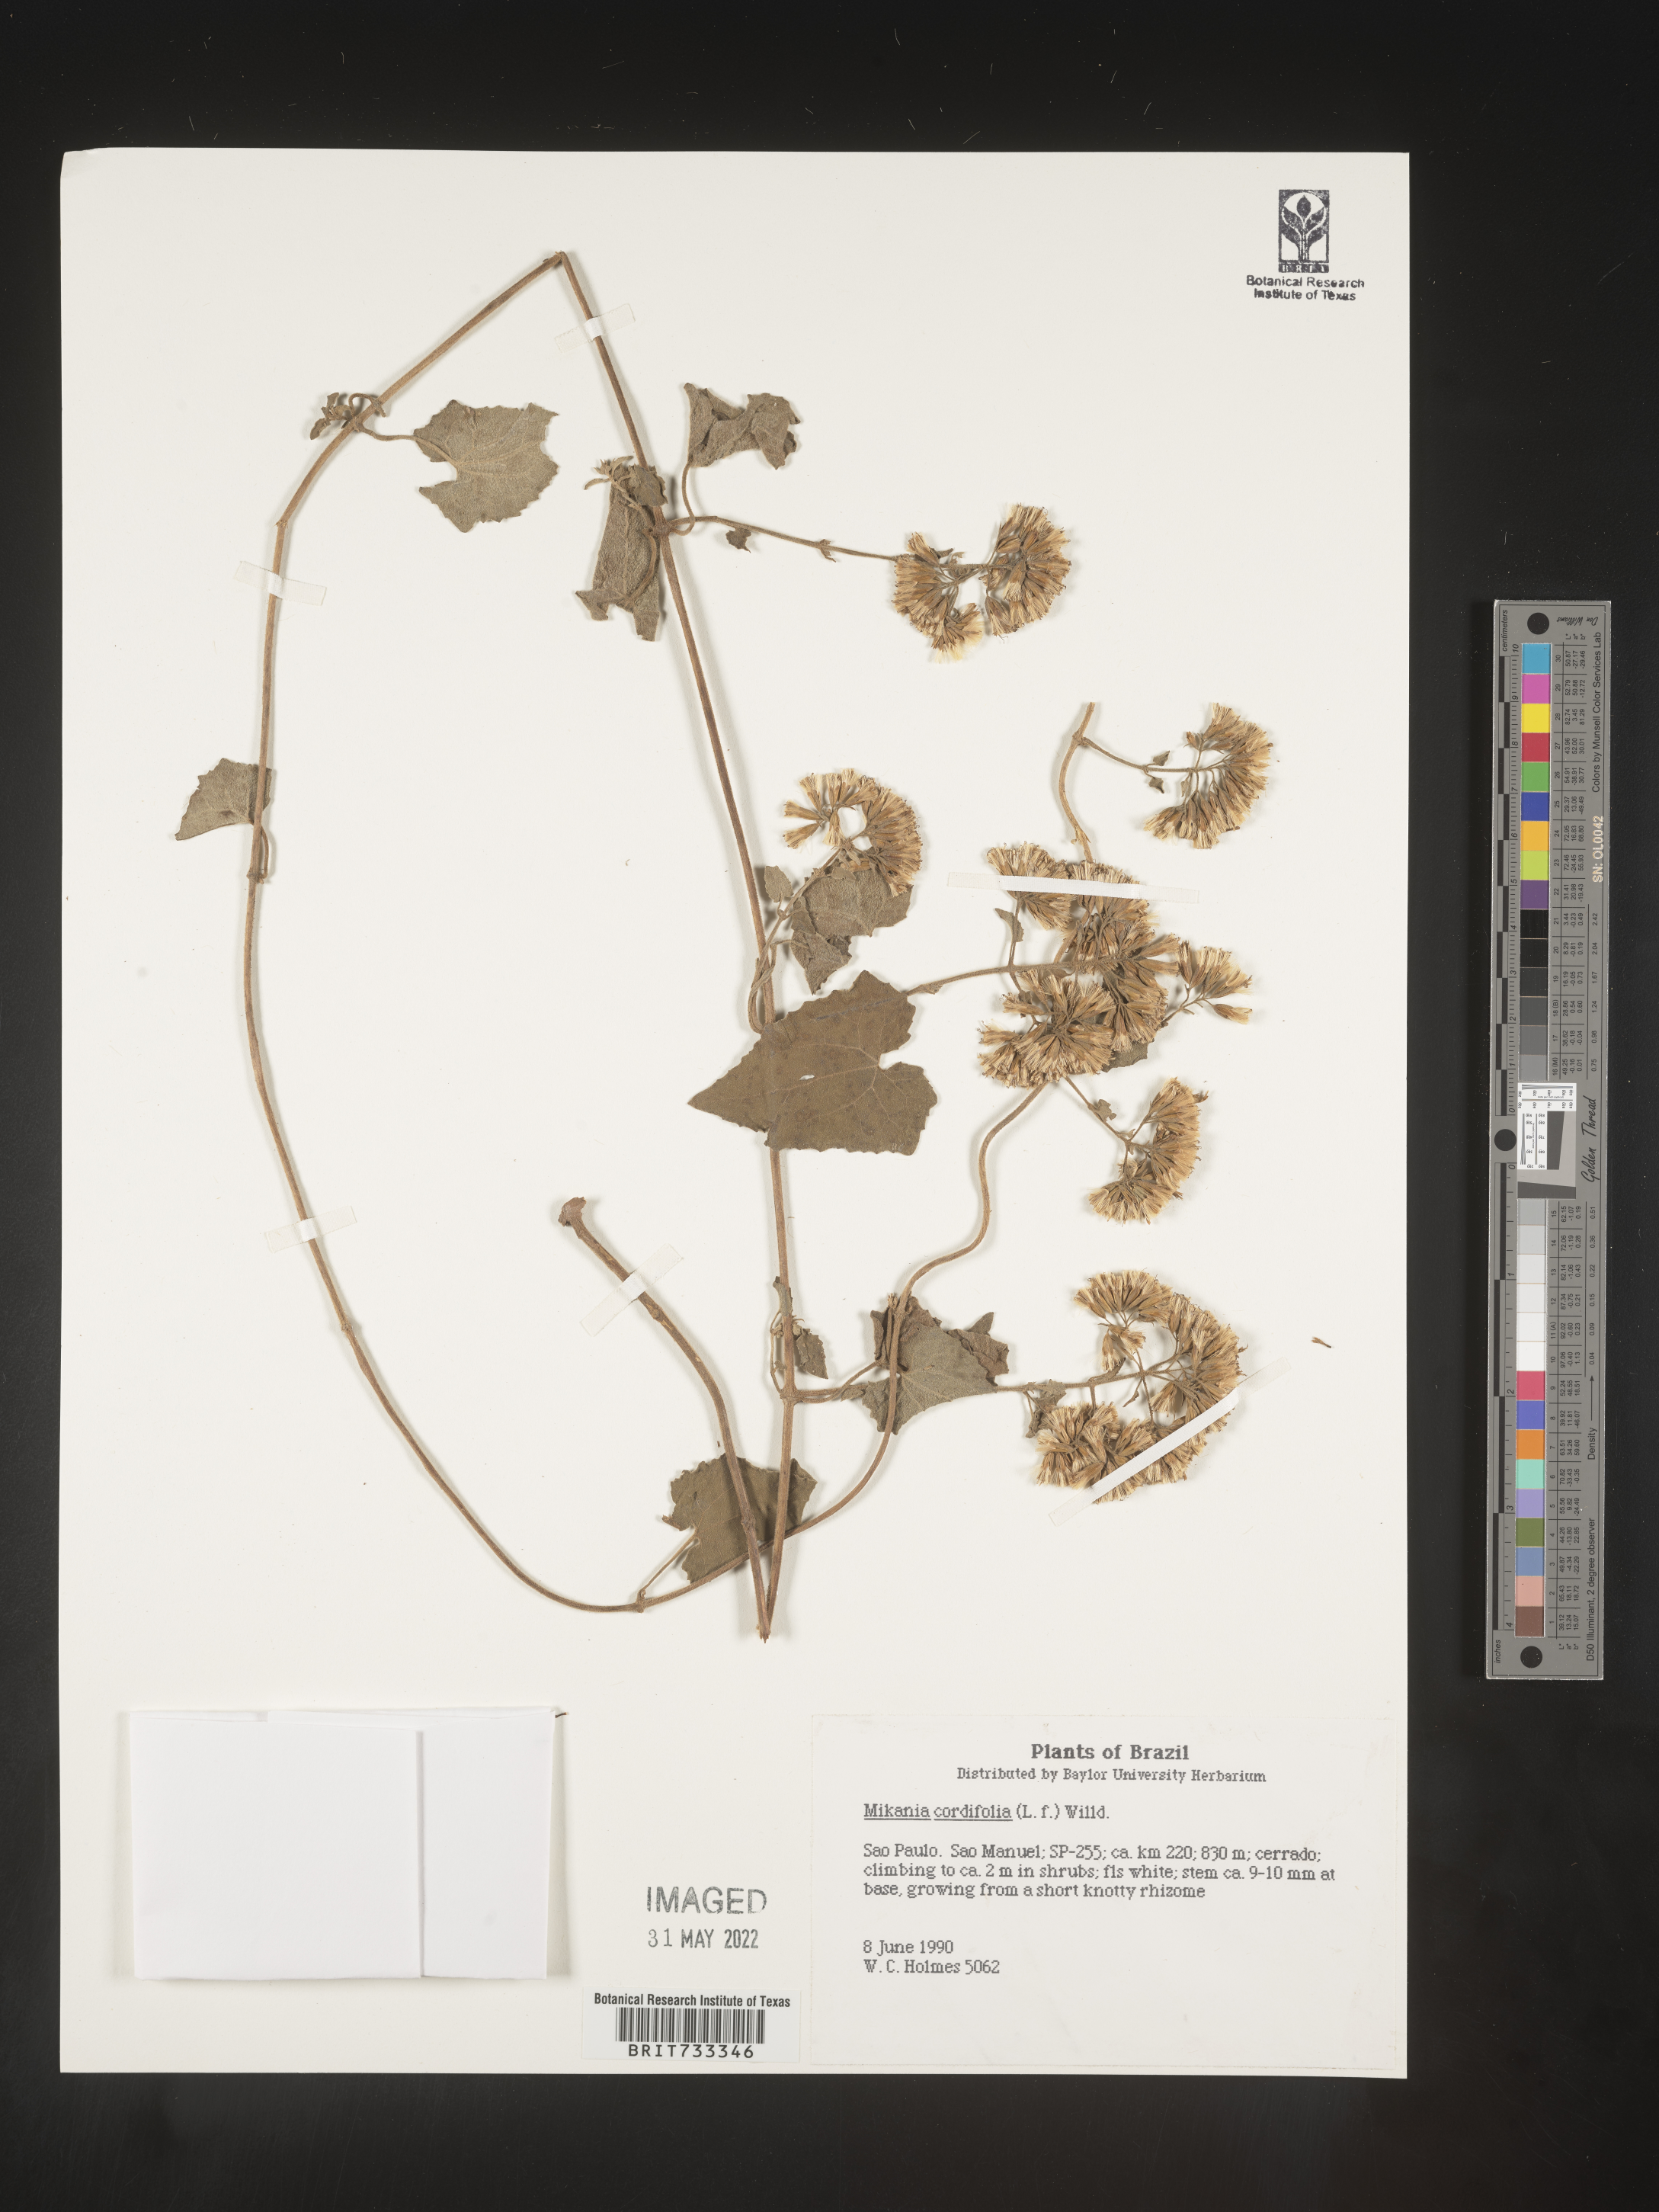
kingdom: Plantae
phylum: Tracheophyta
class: Magnoliopsida
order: Asterales
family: Asteraceae
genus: Mikania
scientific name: Mikania
